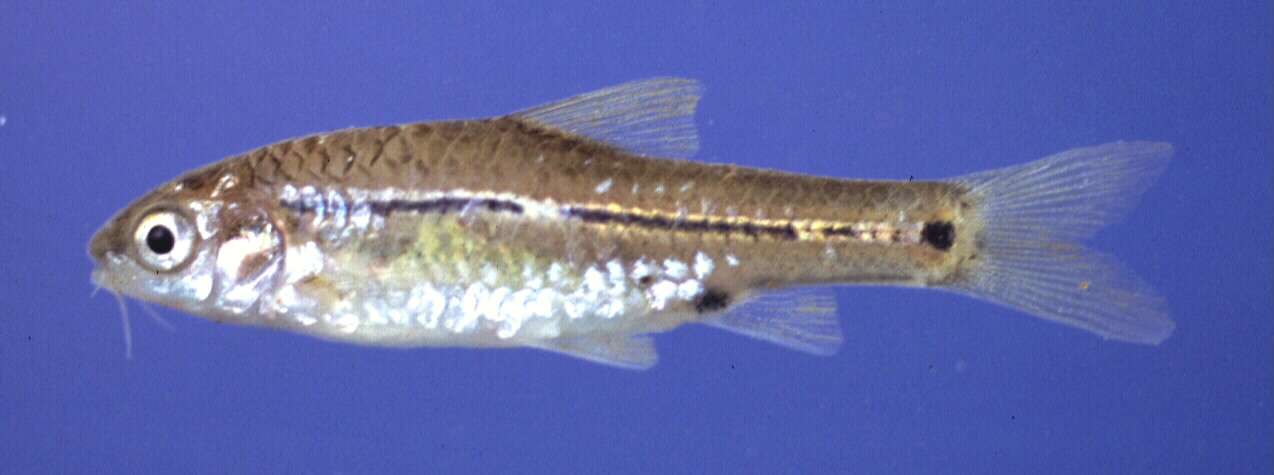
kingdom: Animalia
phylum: Chordata
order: Cypriniformes
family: Cyprinidae
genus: Enteromius
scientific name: Enteromius viviparus
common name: Bowstripe barb
